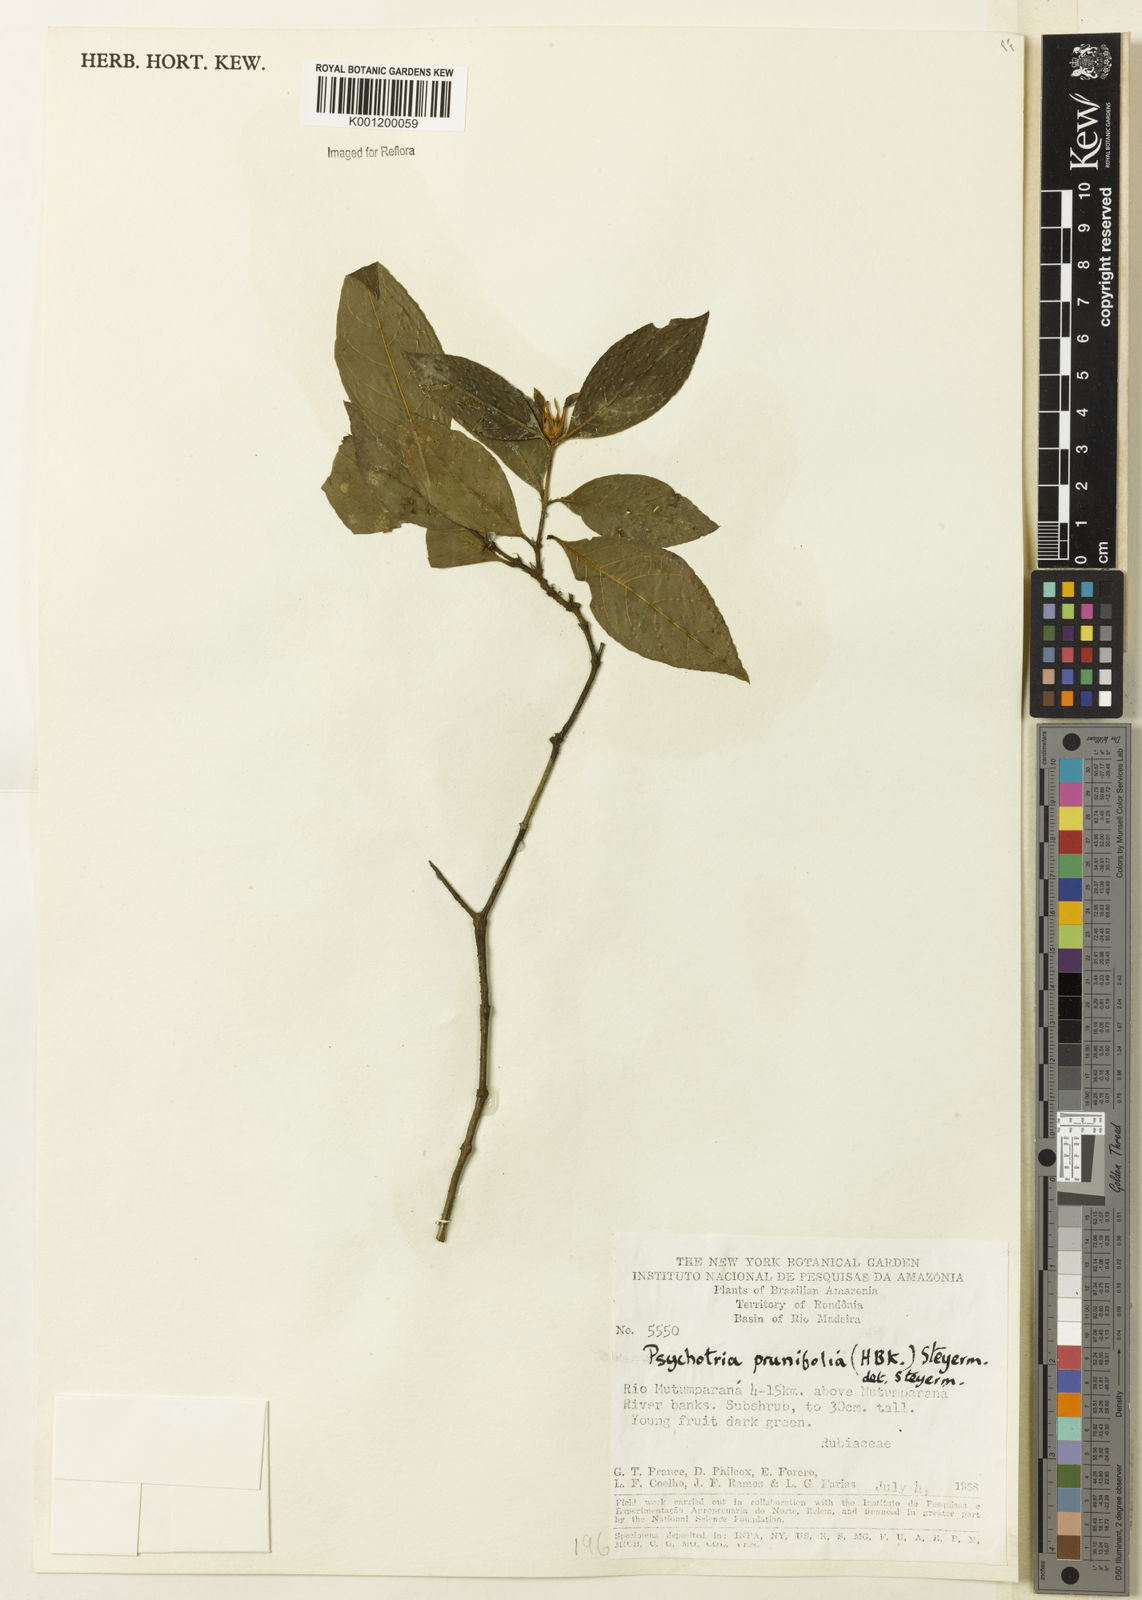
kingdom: Plantae
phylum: Tracheophyta
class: Magnoliopsida
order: Gentianales
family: Rubiaceae
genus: Palicourea
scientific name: Palicourea prunifolia
